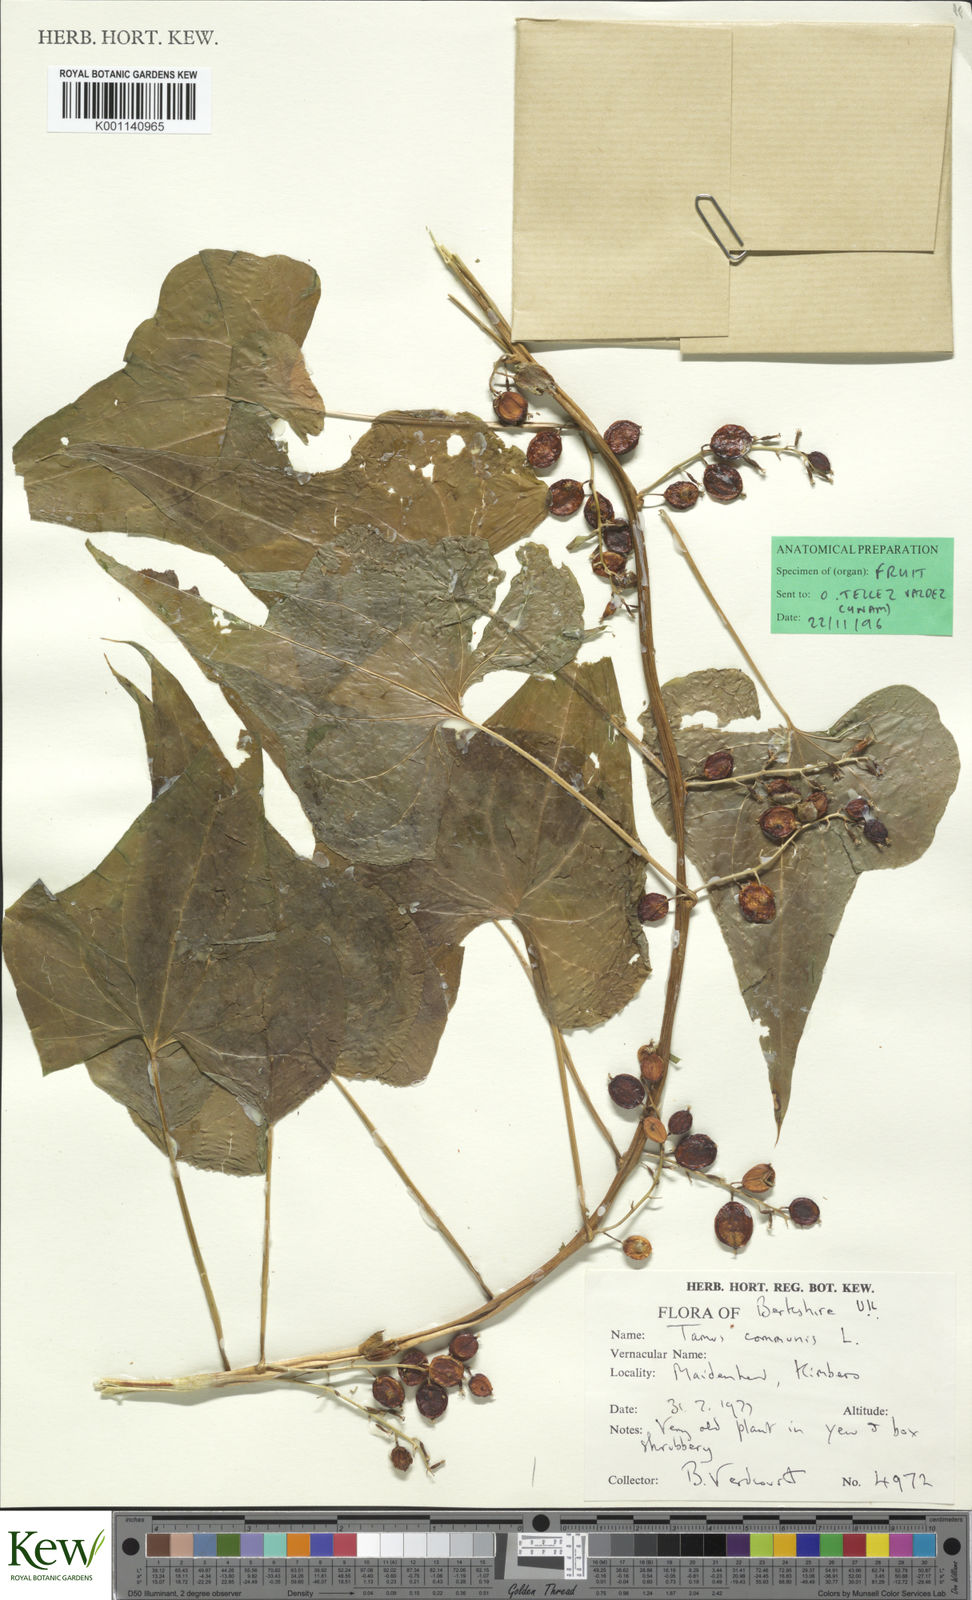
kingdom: Plantae
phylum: Tracheophyta
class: Liliopsida
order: Dioscoreales
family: Dioscoreaceae
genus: Dioscorea
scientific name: Dioscorea communis
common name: Black-bindweed
